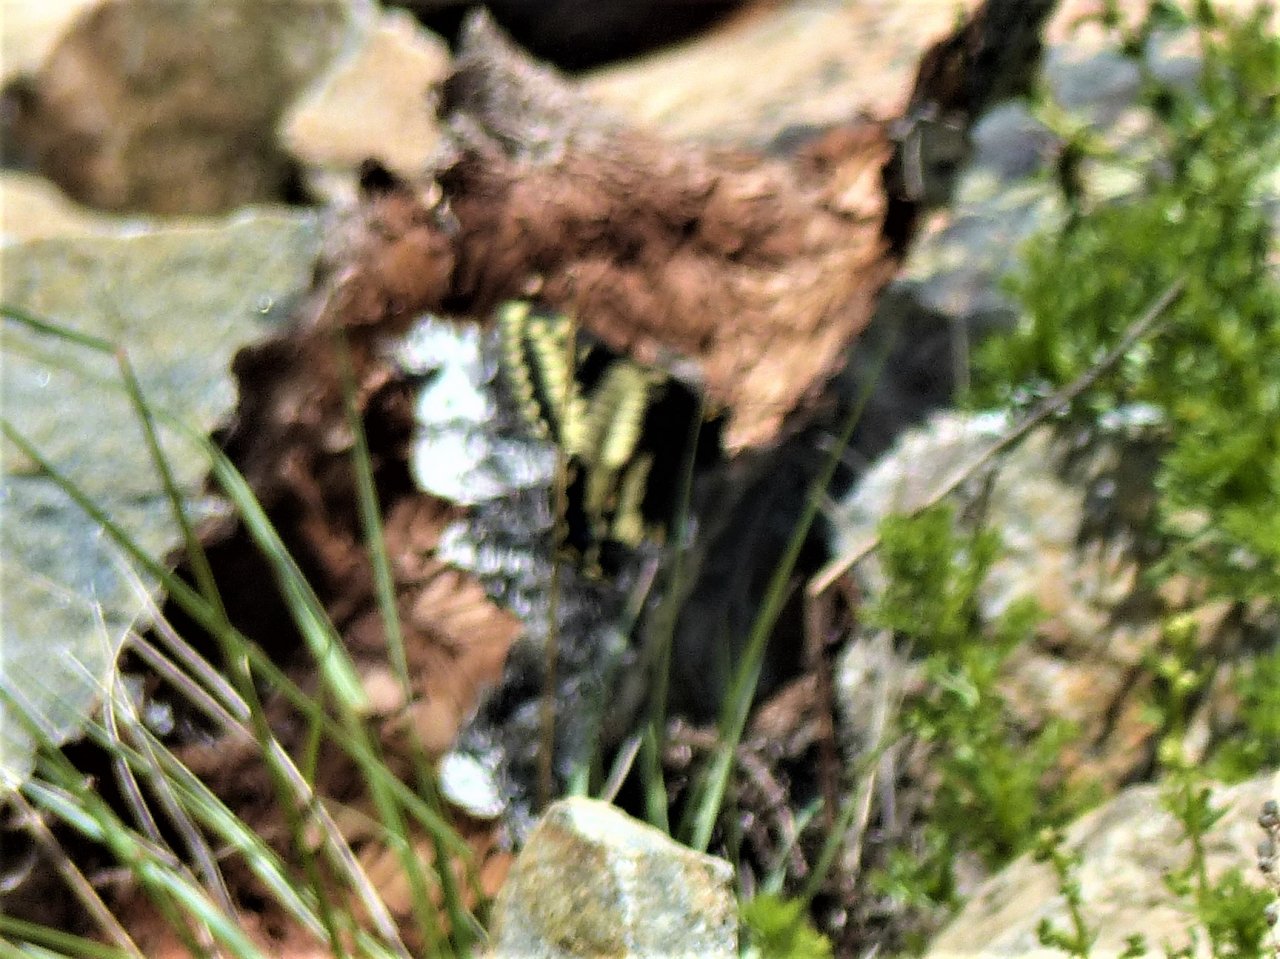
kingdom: Animalia
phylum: Arthropoda
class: Insecta
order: Lepidoptera
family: Papilionidae
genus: Papilio
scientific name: Papilio indra
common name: Indra Swallowtail
